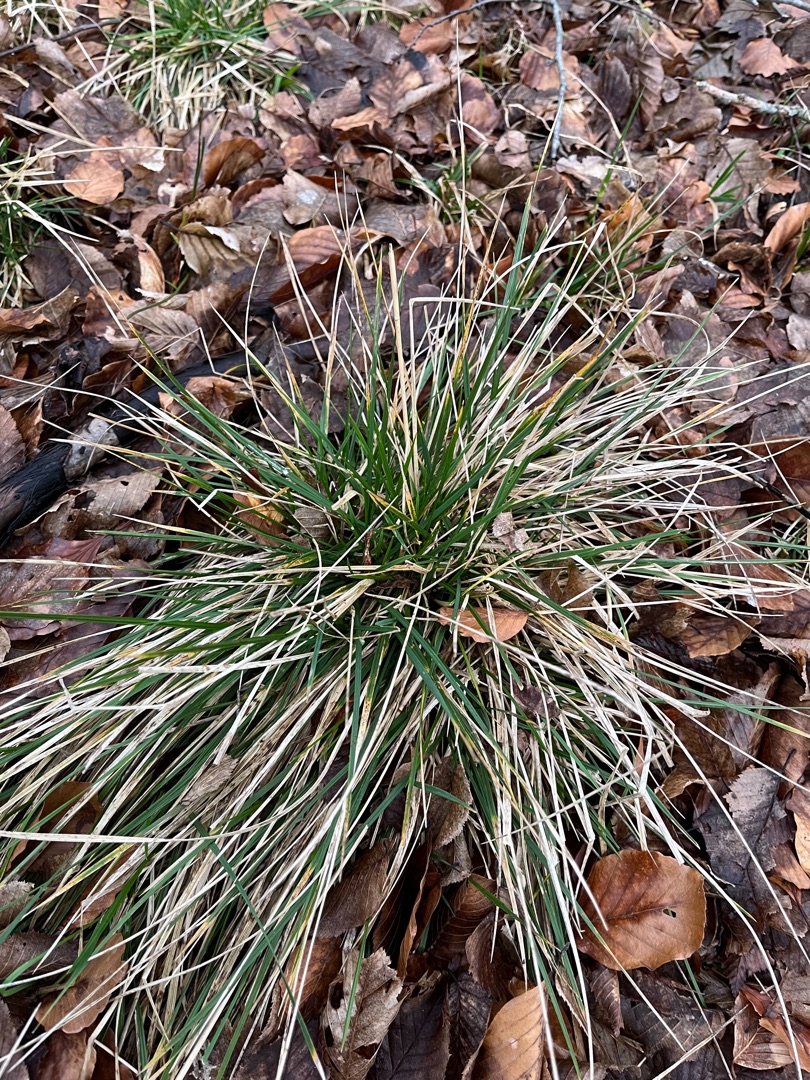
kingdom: Plantae
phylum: Tracheophyta
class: Liliopsida
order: Poales
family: Poaceae
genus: Deschampsia
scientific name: Deschampsia cespitosa
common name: Mose-bunke
